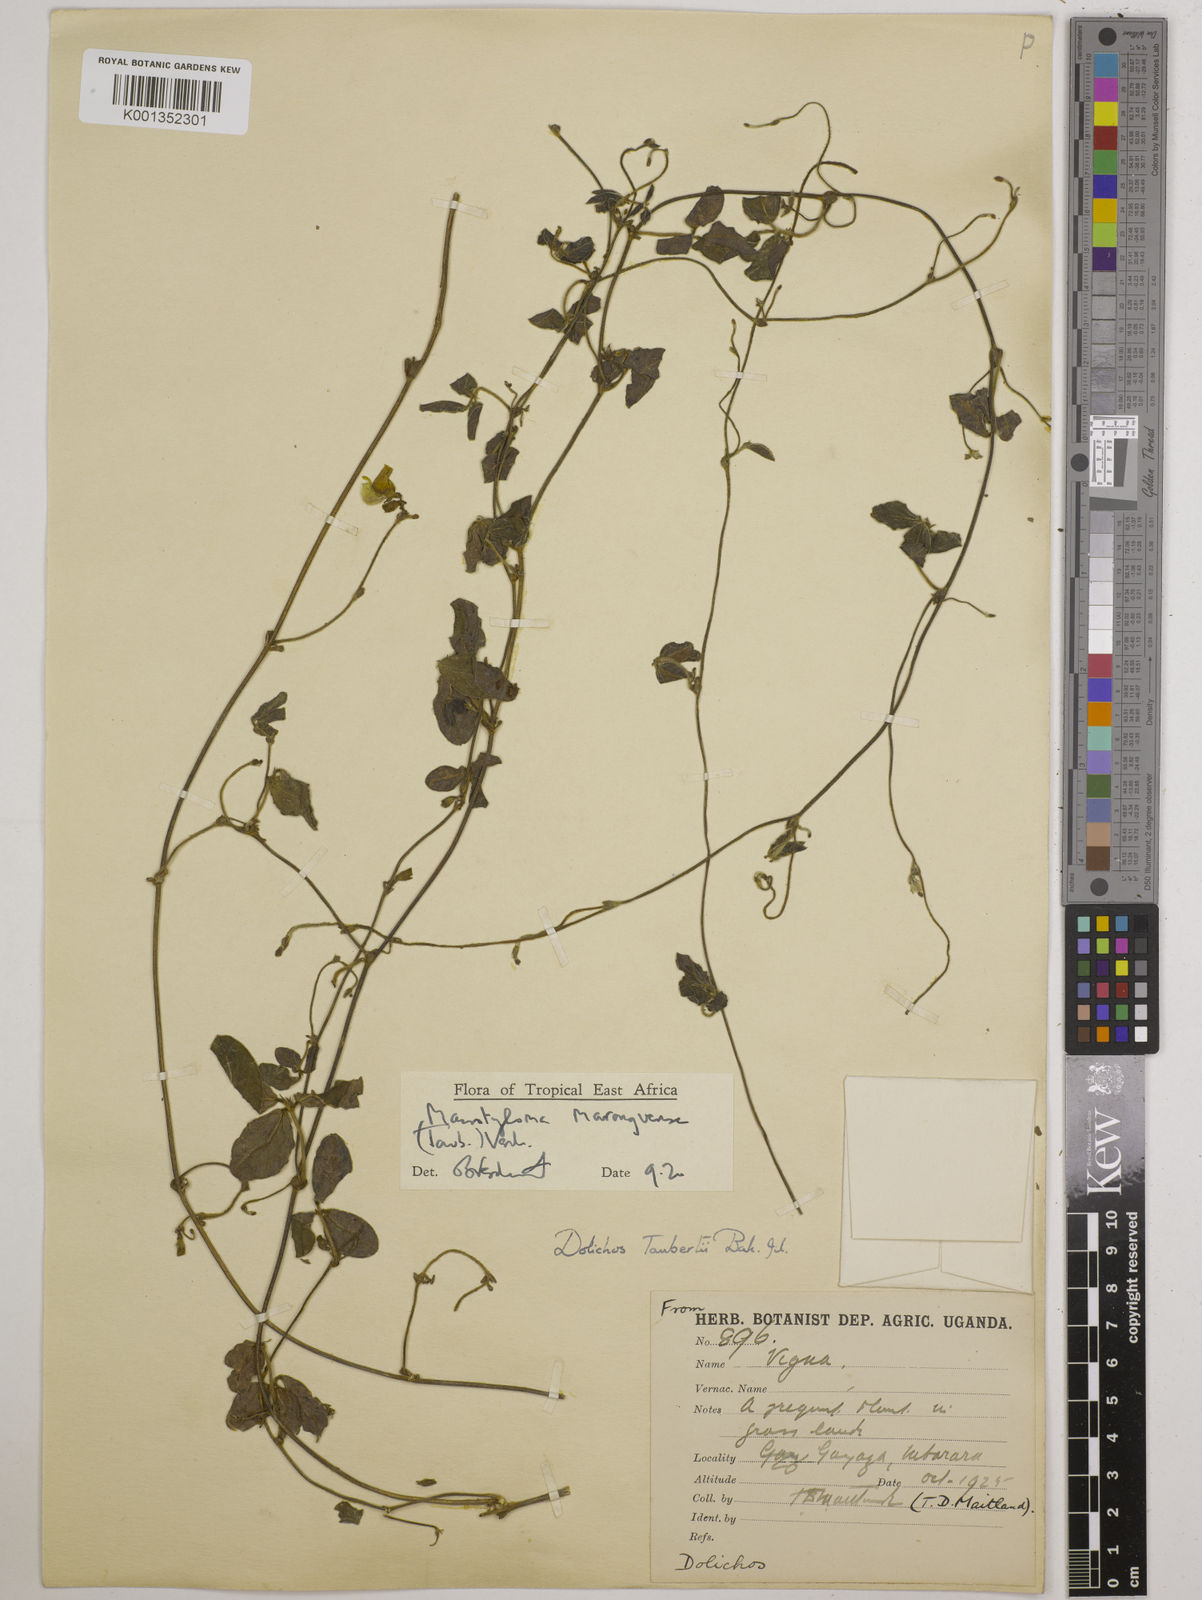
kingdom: Plantae
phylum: Tracheophyta
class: Magnoliopsida
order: Fabales
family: Fabaceae
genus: Macrotyloma
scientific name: Macrotyloma maranguense
